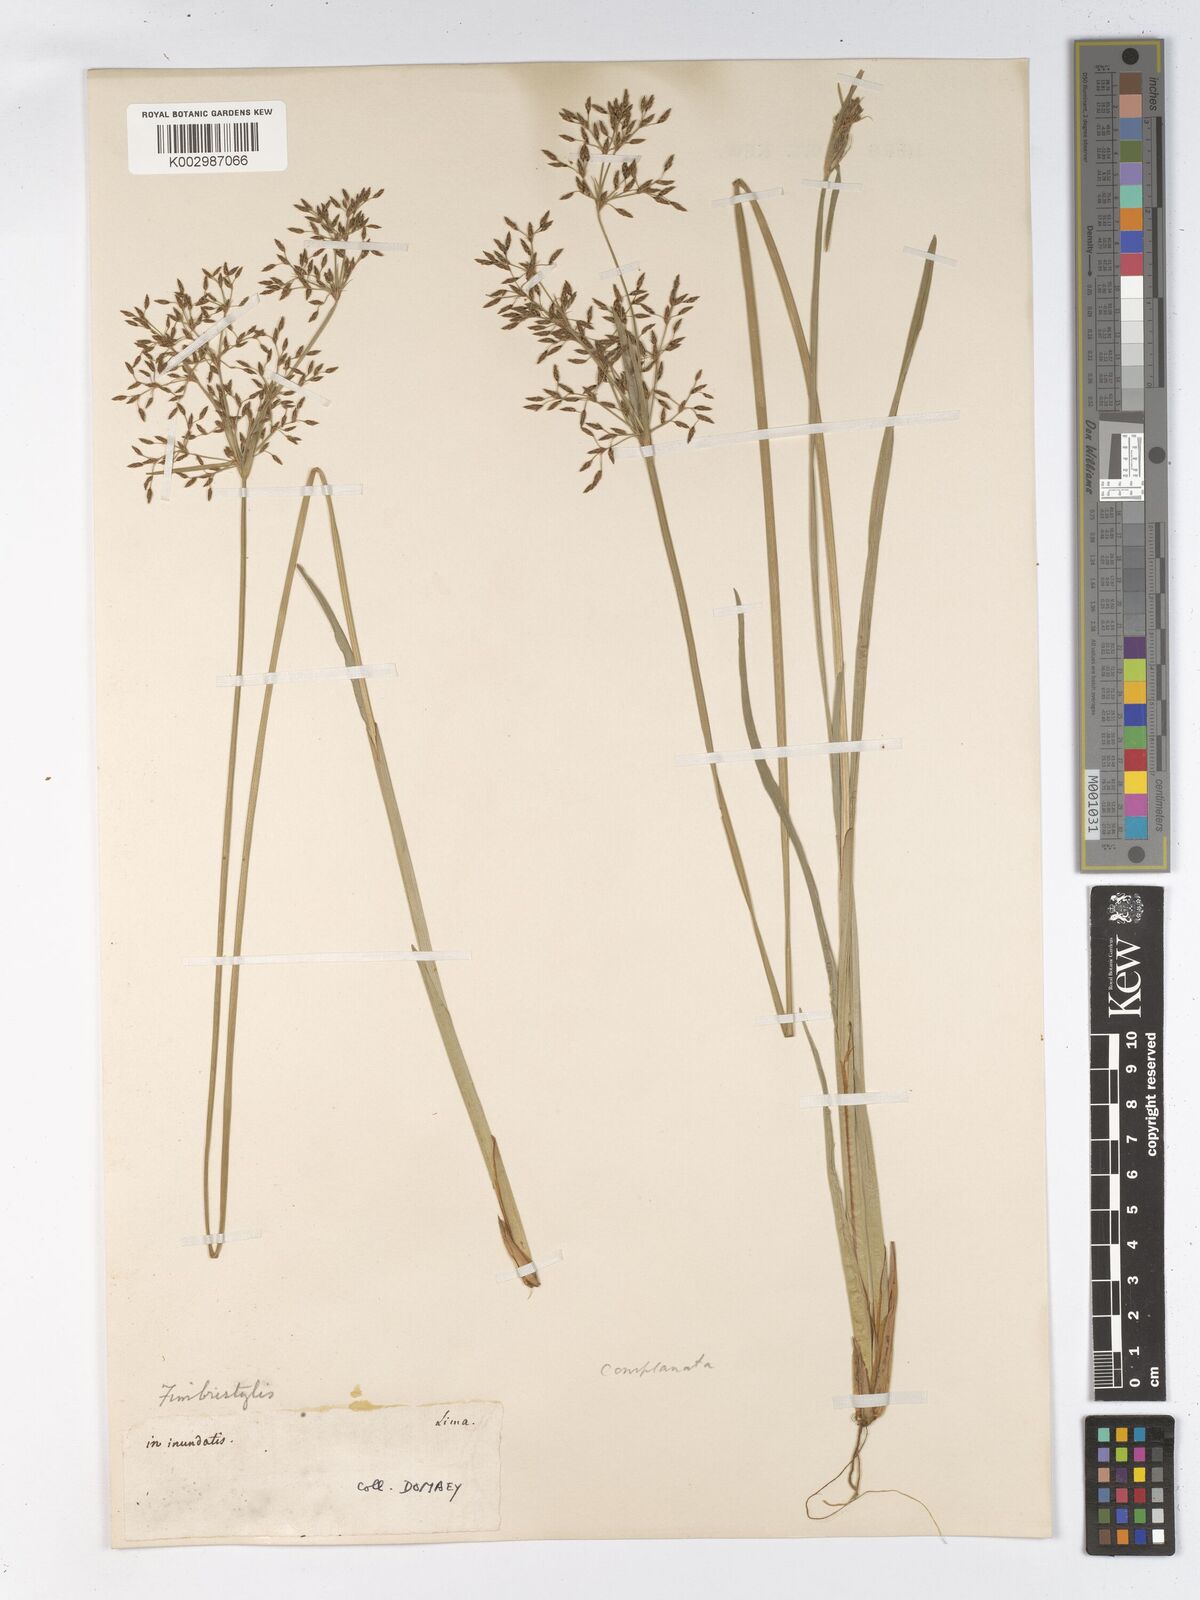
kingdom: Plantae
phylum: Tracheophyta
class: Liliopsida
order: Poales
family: Cyperaceae
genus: Fimbristylis
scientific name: Fimbristylis complanata
